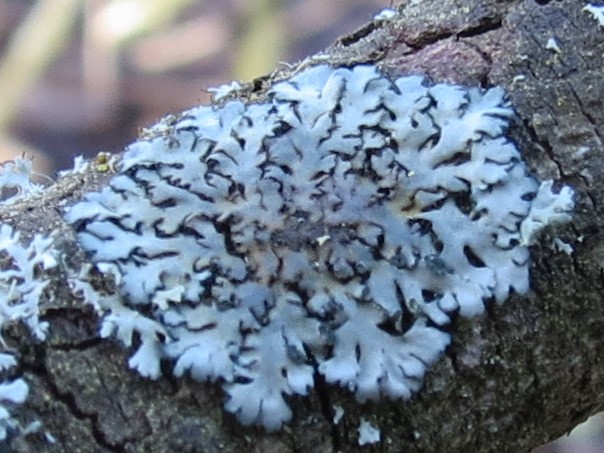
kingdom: Fungi
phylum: Ascomycota
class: Lecanoromycetes
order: Caliciales
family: Physciaceae
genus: Phaeophyscia
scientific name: Phaeophyscia orbicularis
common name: grågrøn rosetlav
